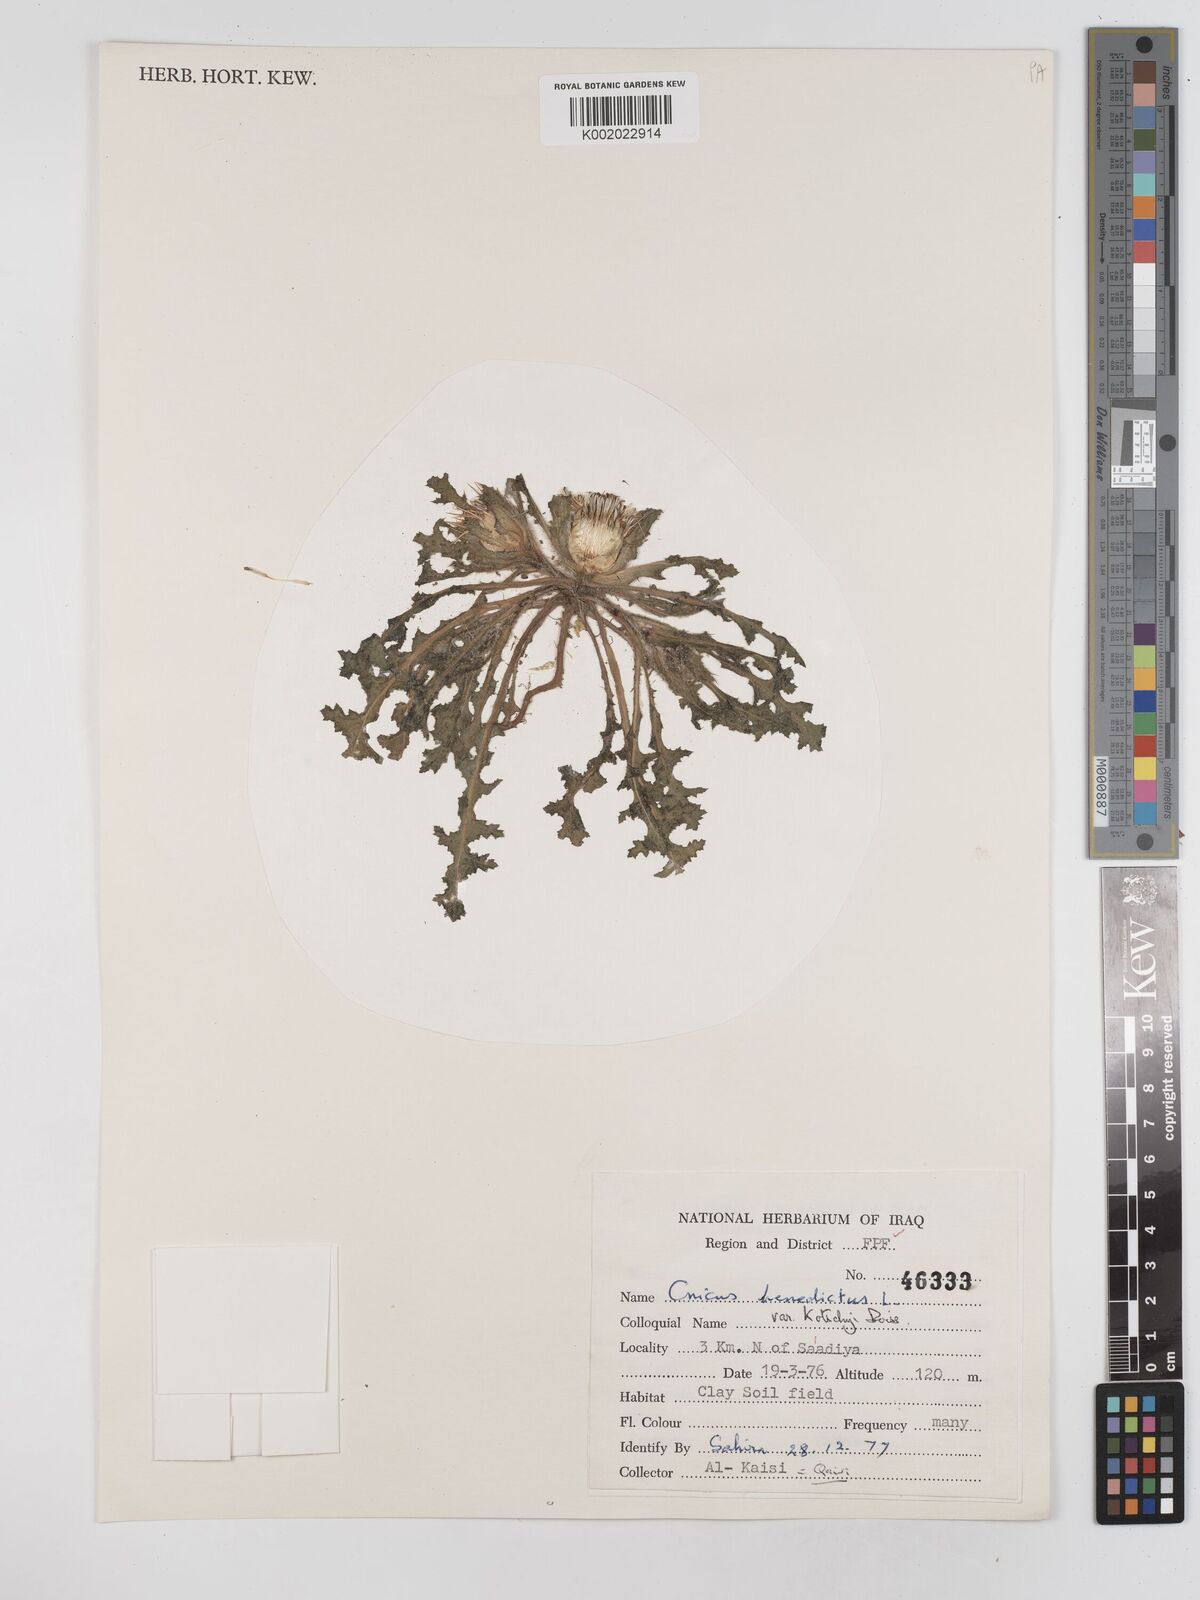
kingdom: Plantae
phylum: Tracheophyta
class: Magnoliopsida
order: Asterales
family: Asteraceae
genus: Centaurea
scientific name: Centaurea benedicta
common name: Blessed thistle
